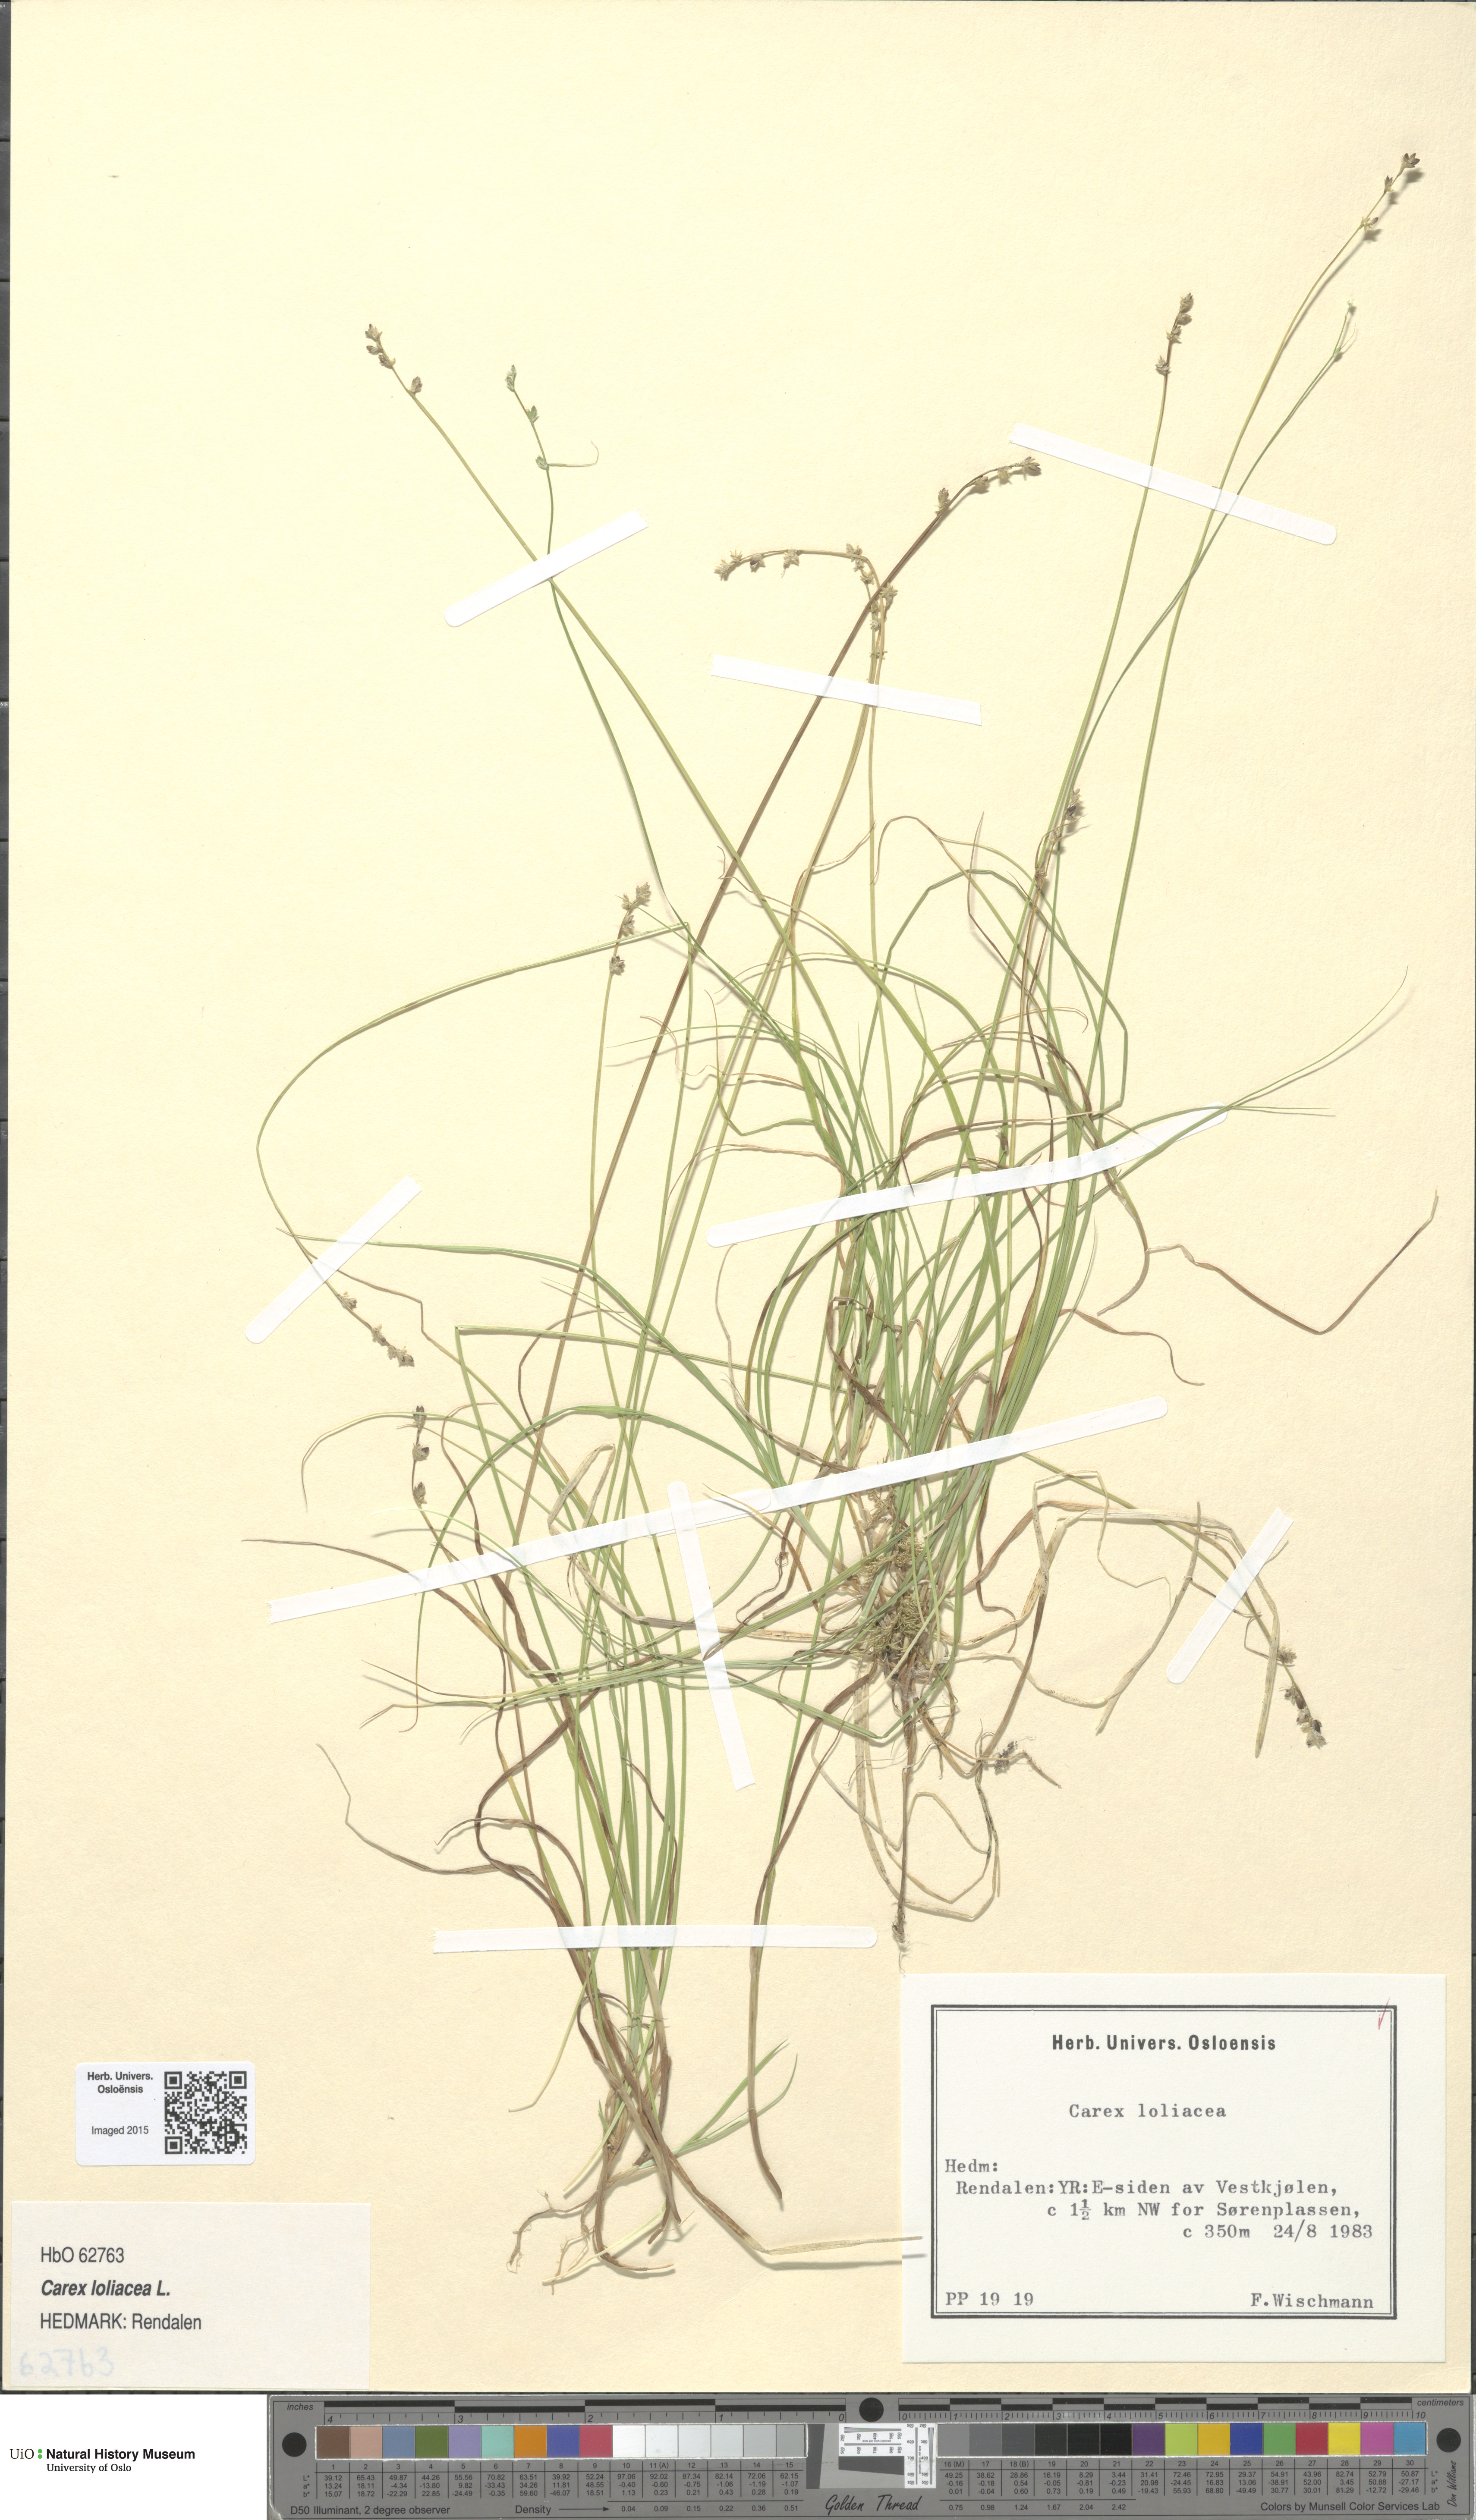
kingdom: Plantae
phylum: Tracheophyta
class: Liliopsida
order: Poales
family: Cyperaceae
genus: Carex
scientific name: Carex loliacea
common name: Ryegrass sedge
